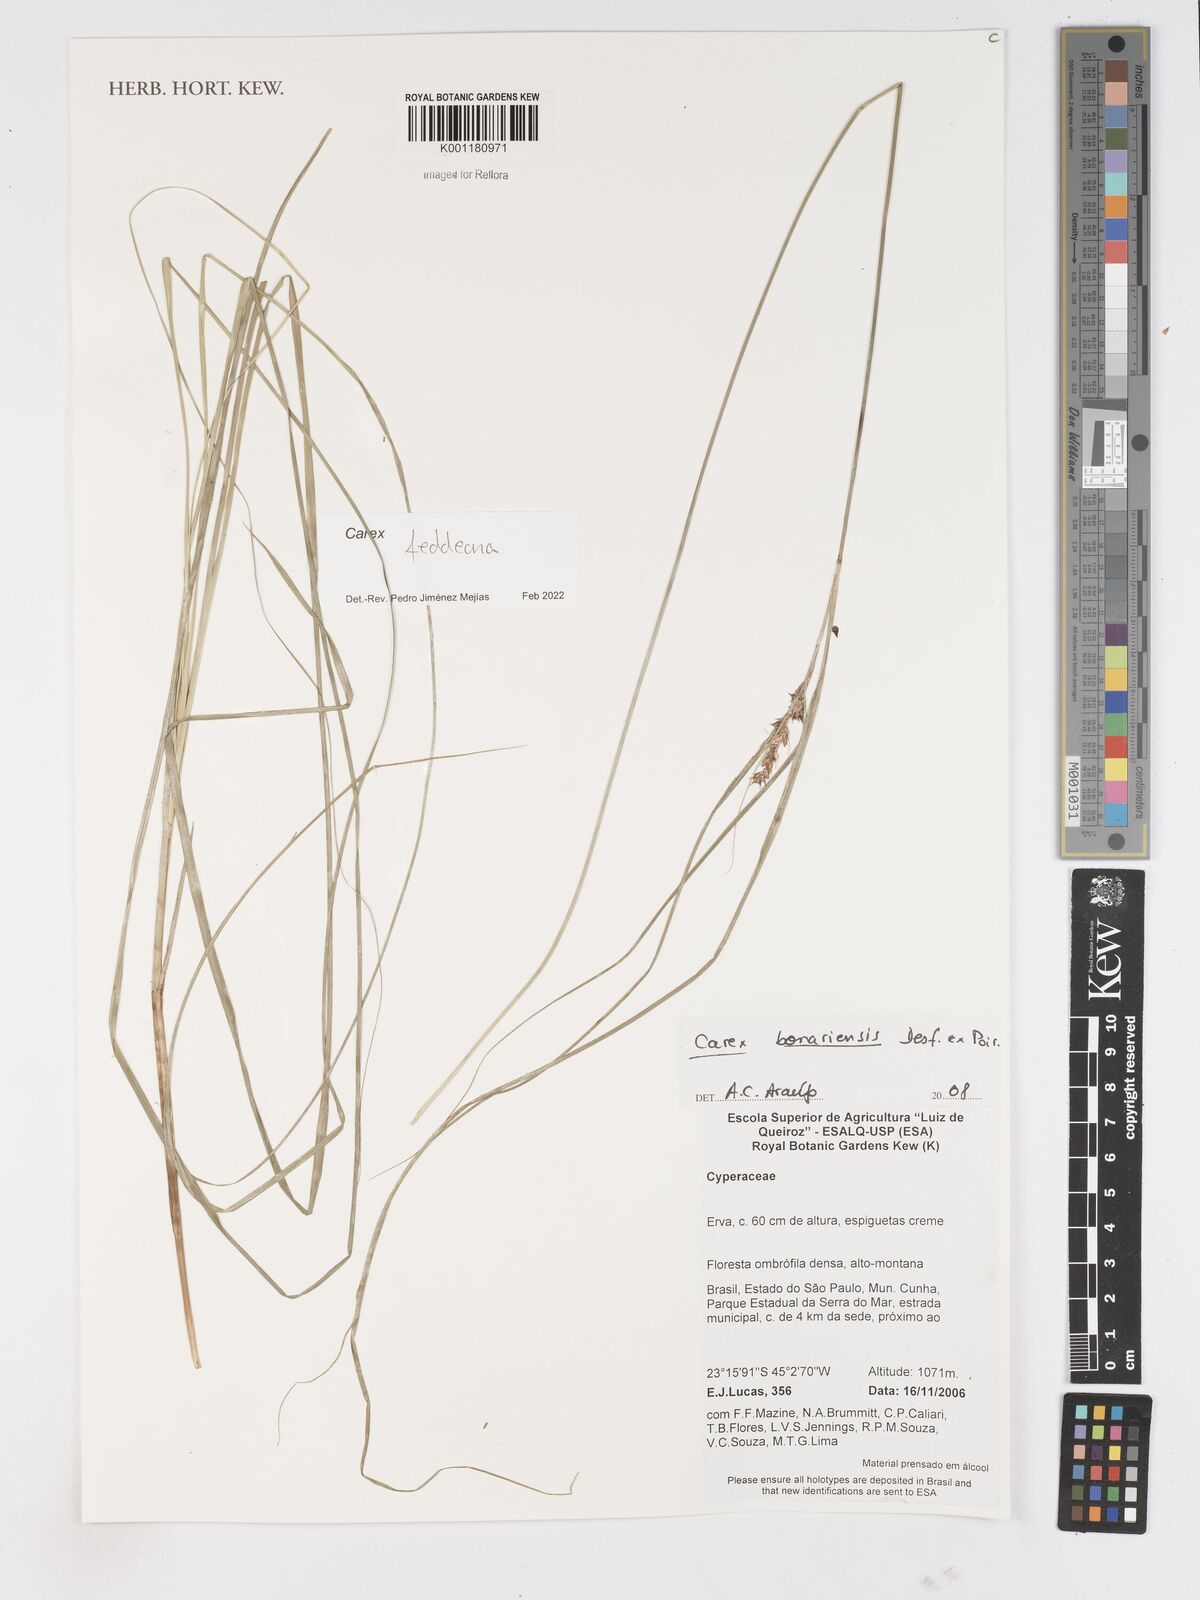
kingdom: Plantae
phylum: Tracheophyta
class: Liliopsida
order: Poales
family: Cyperaceae
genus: Carex
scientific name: Carex bonariensis
